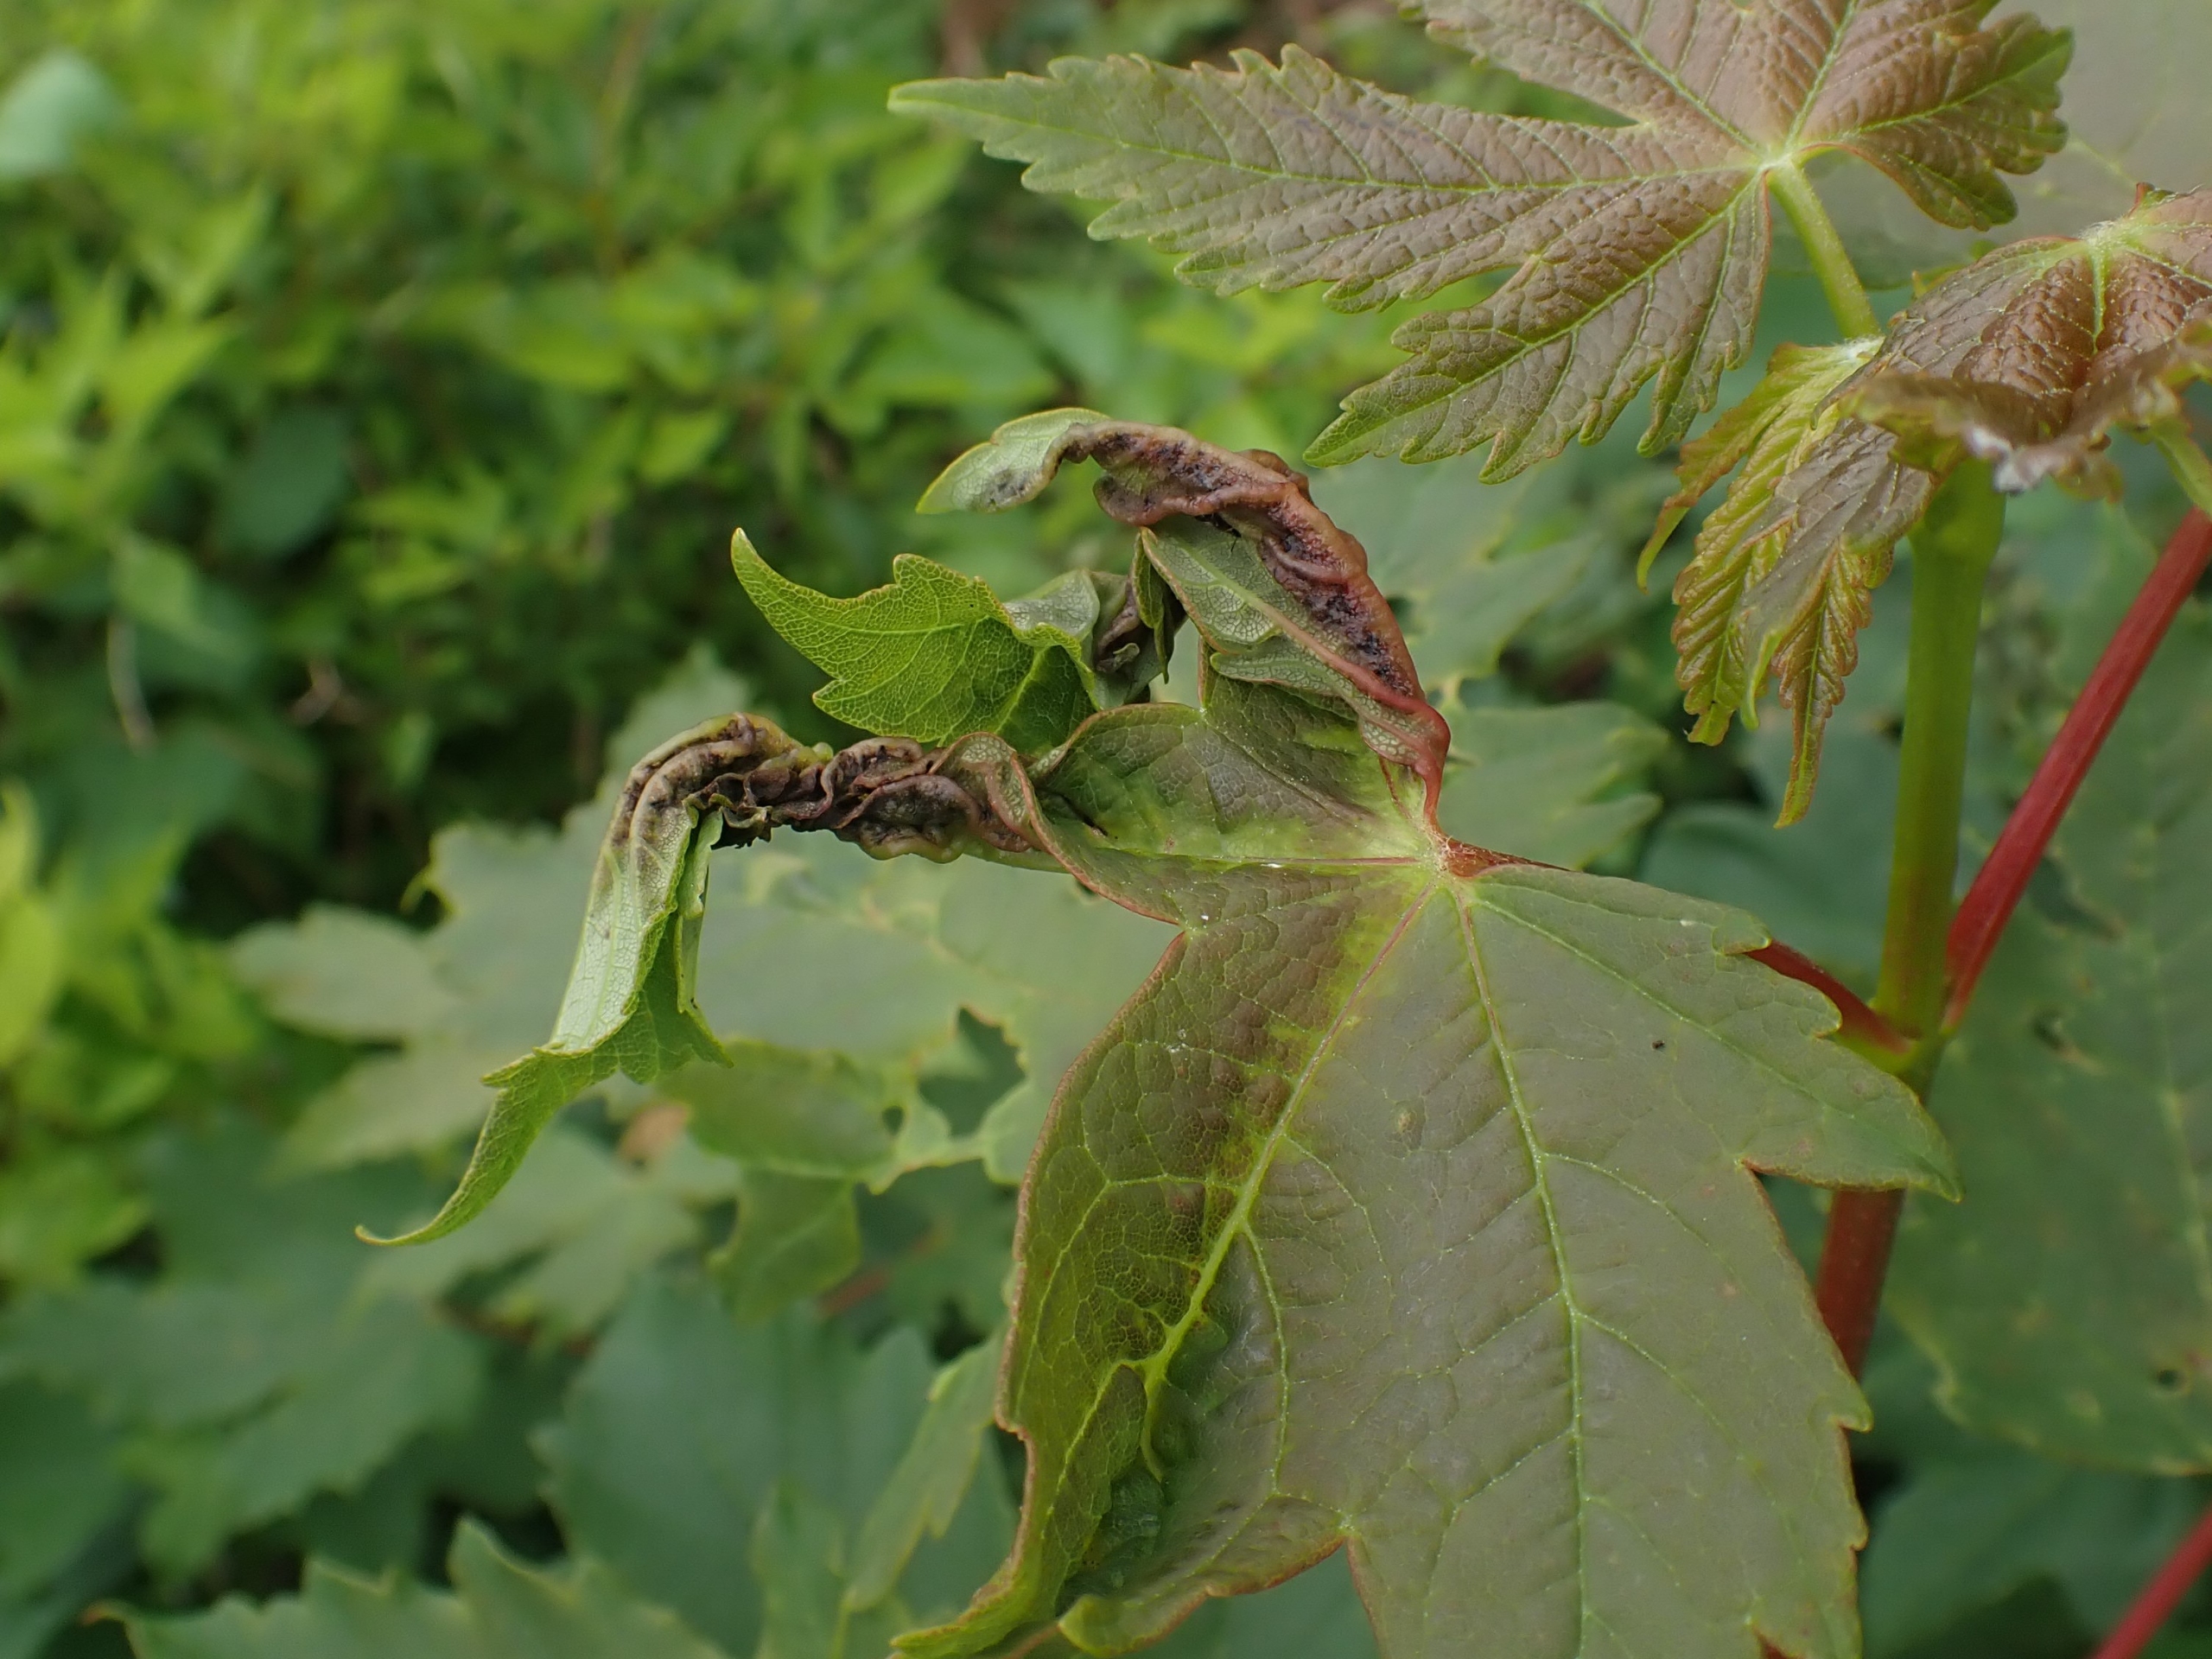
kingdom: Animalia
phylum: Arthropoda
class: Insecta
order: Diptera
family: Cecidomyiidae
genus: Dasineura
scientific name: Dasineura irregularis
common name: Ahornkrusegalmyg
